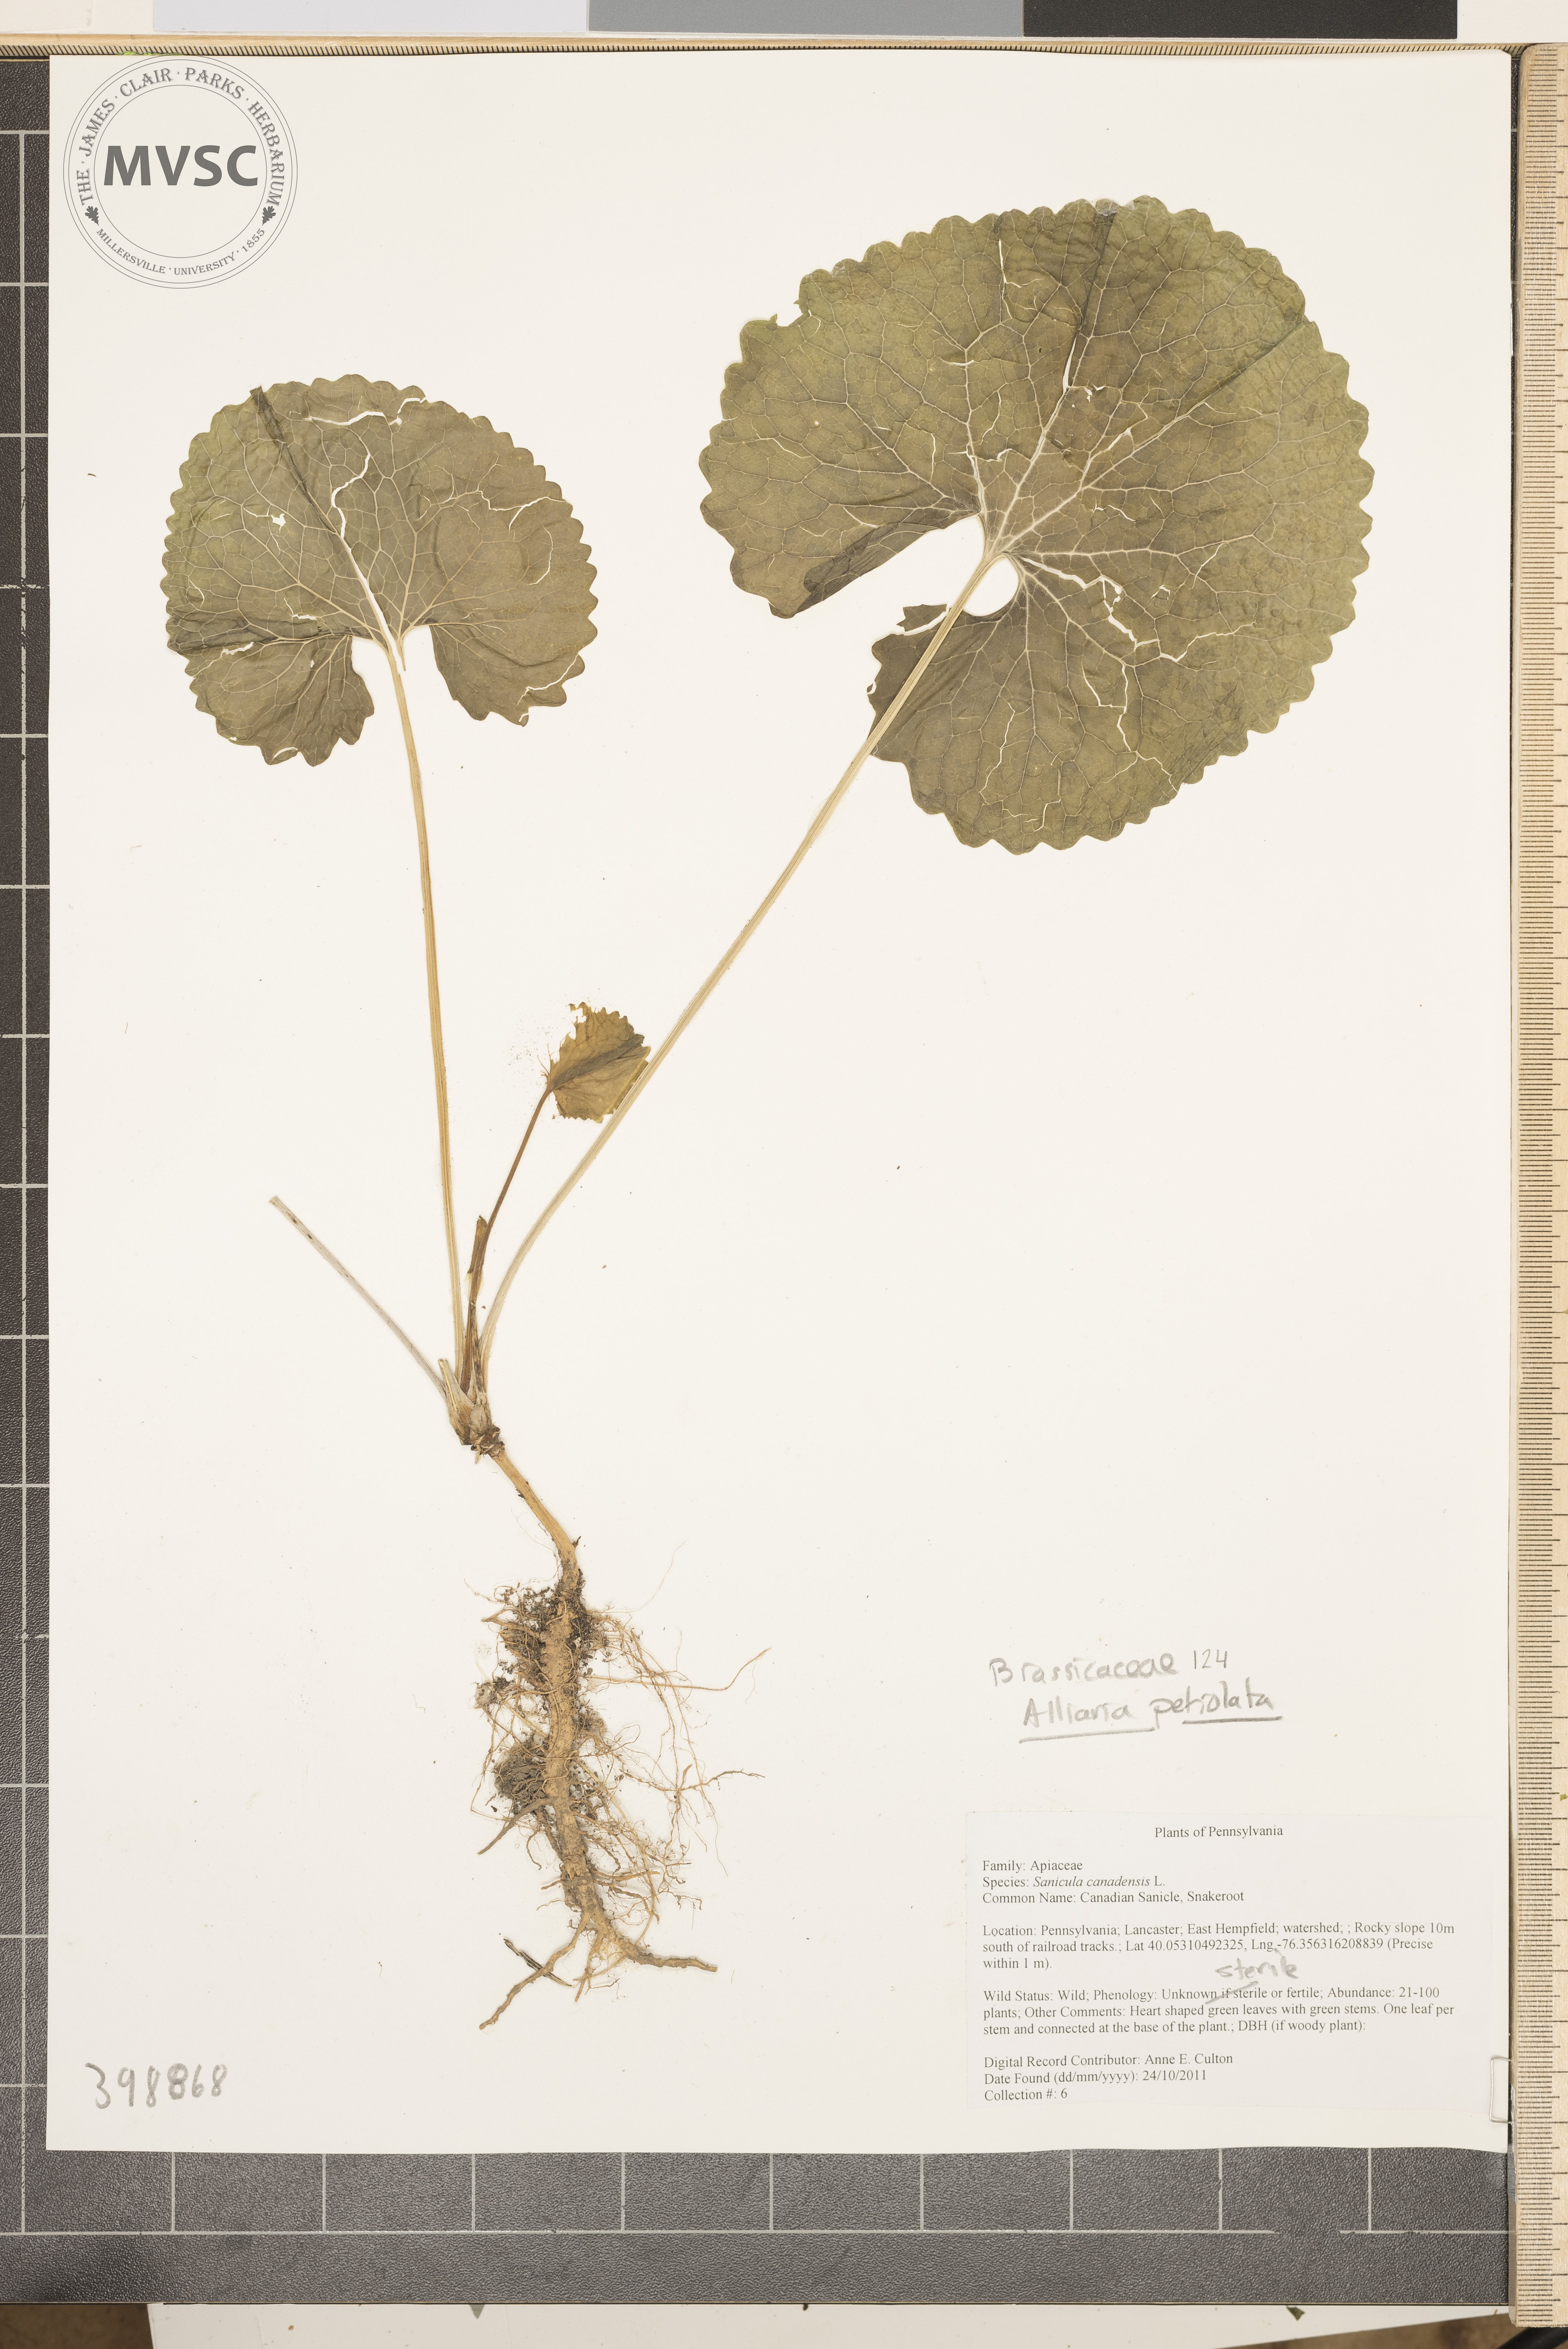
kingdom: Plantae
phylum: Tracheophyta
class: Magnoliopsida
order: Brassicales
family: Brassicaceae
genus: Alliaria
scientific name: Alliaria petiolata
